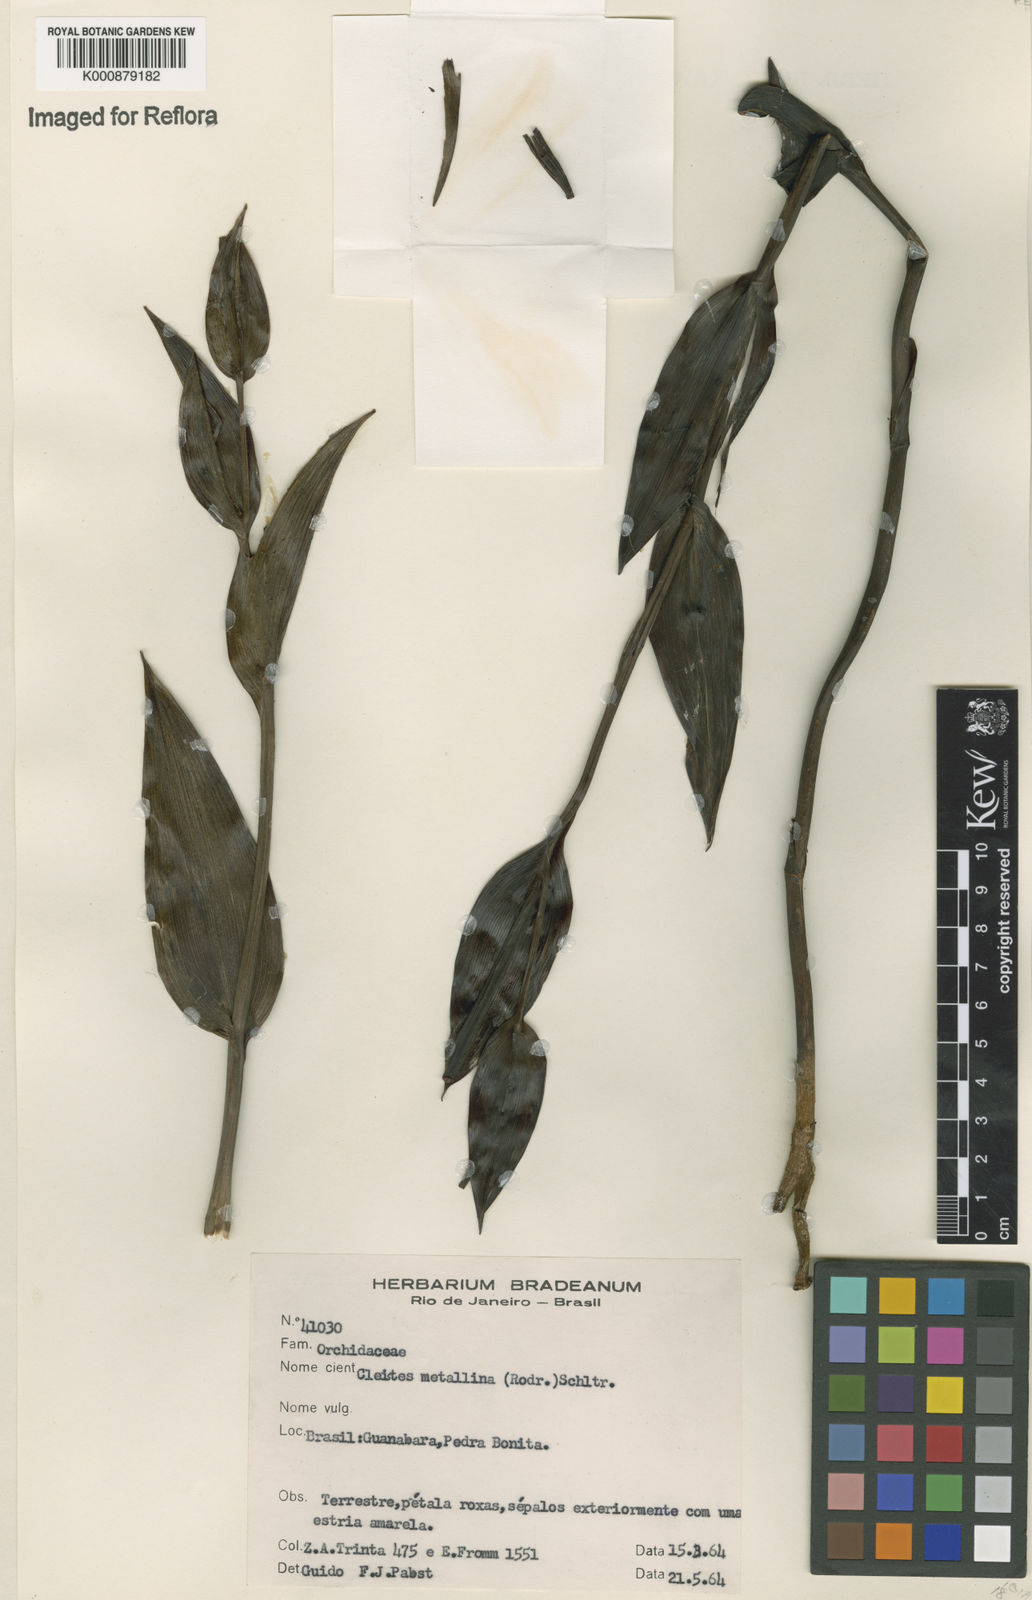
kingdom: Plantae
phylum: Tracheophyta
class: Liliopsida
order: Asparagales
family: Orchidaceae
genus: Cleistes
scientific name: Cleistes speciosa
